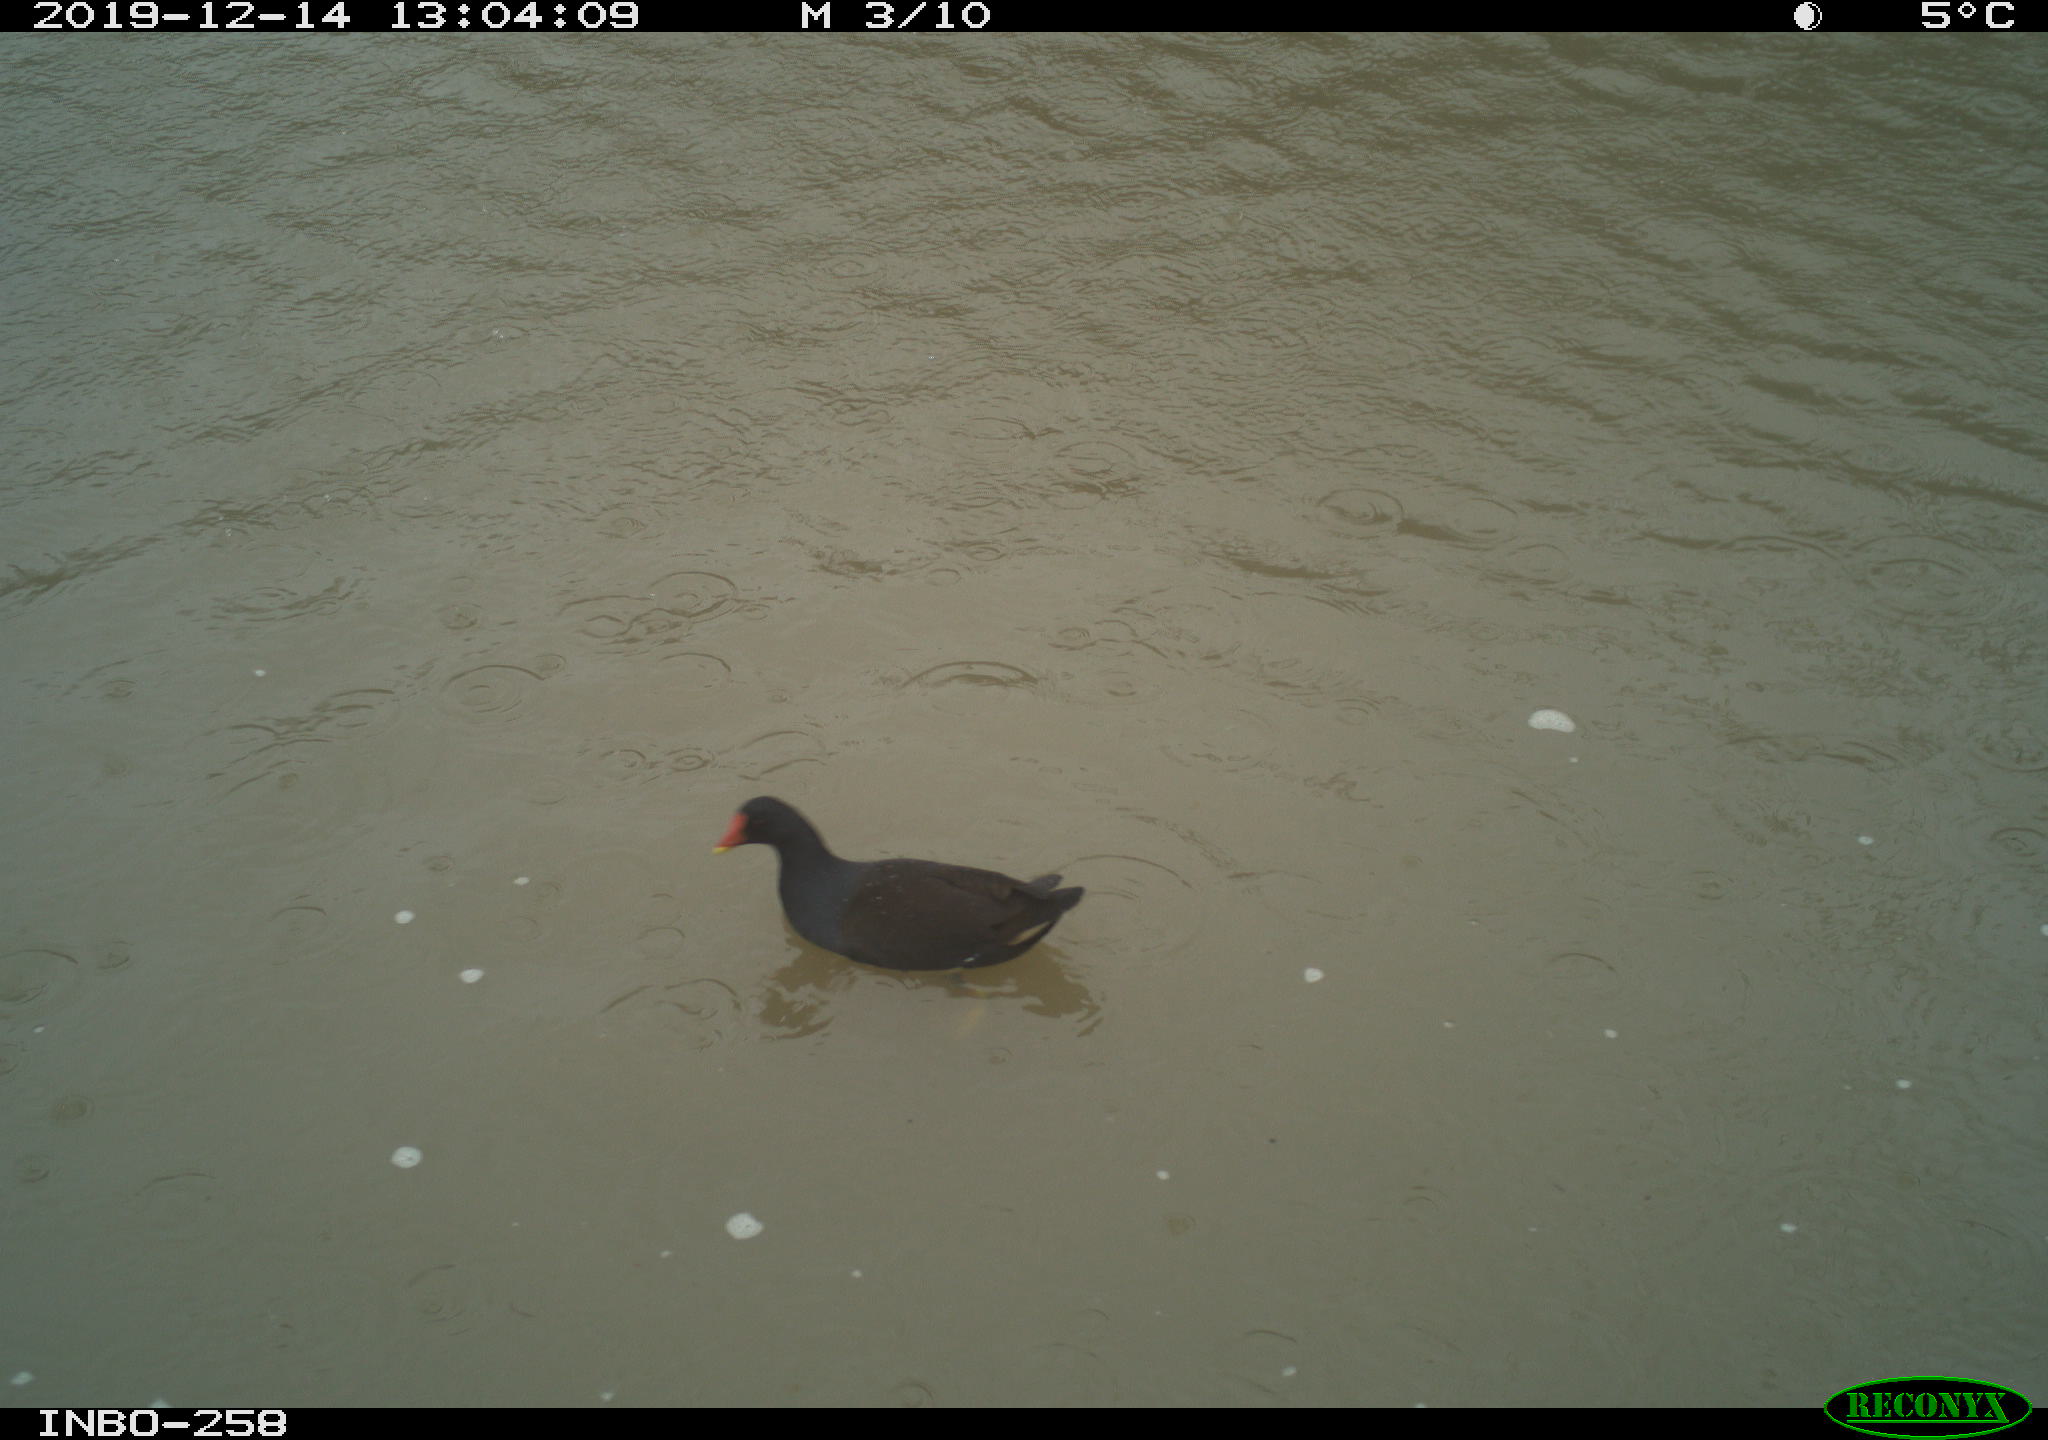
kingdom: Animalia
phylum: Chordata
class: Aves
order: Gruiformes
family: Rallidae
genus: Gallinula
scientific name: Gallinula chloropus
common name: Common moorhen
